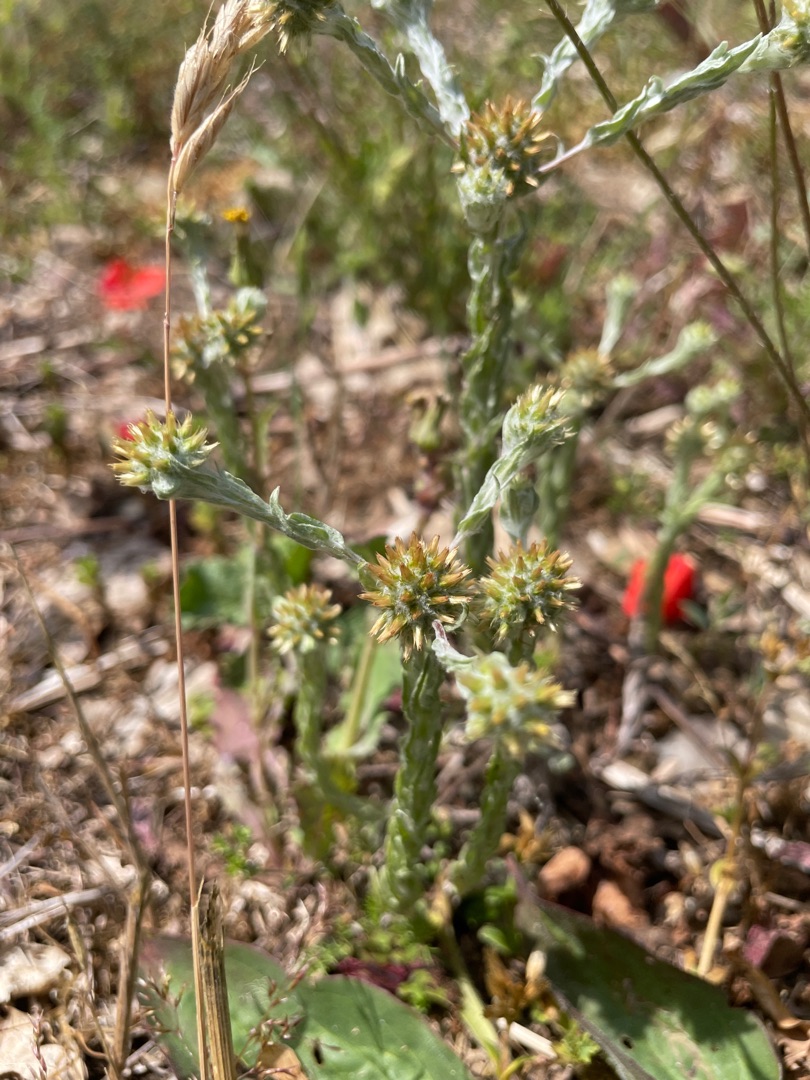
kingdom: Plantae
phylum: Tracheophyta
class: Magnoliopsida
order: Asterales
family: Asteraceae
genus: Filago
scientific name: Filago germanica
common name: Kugle-museurt
